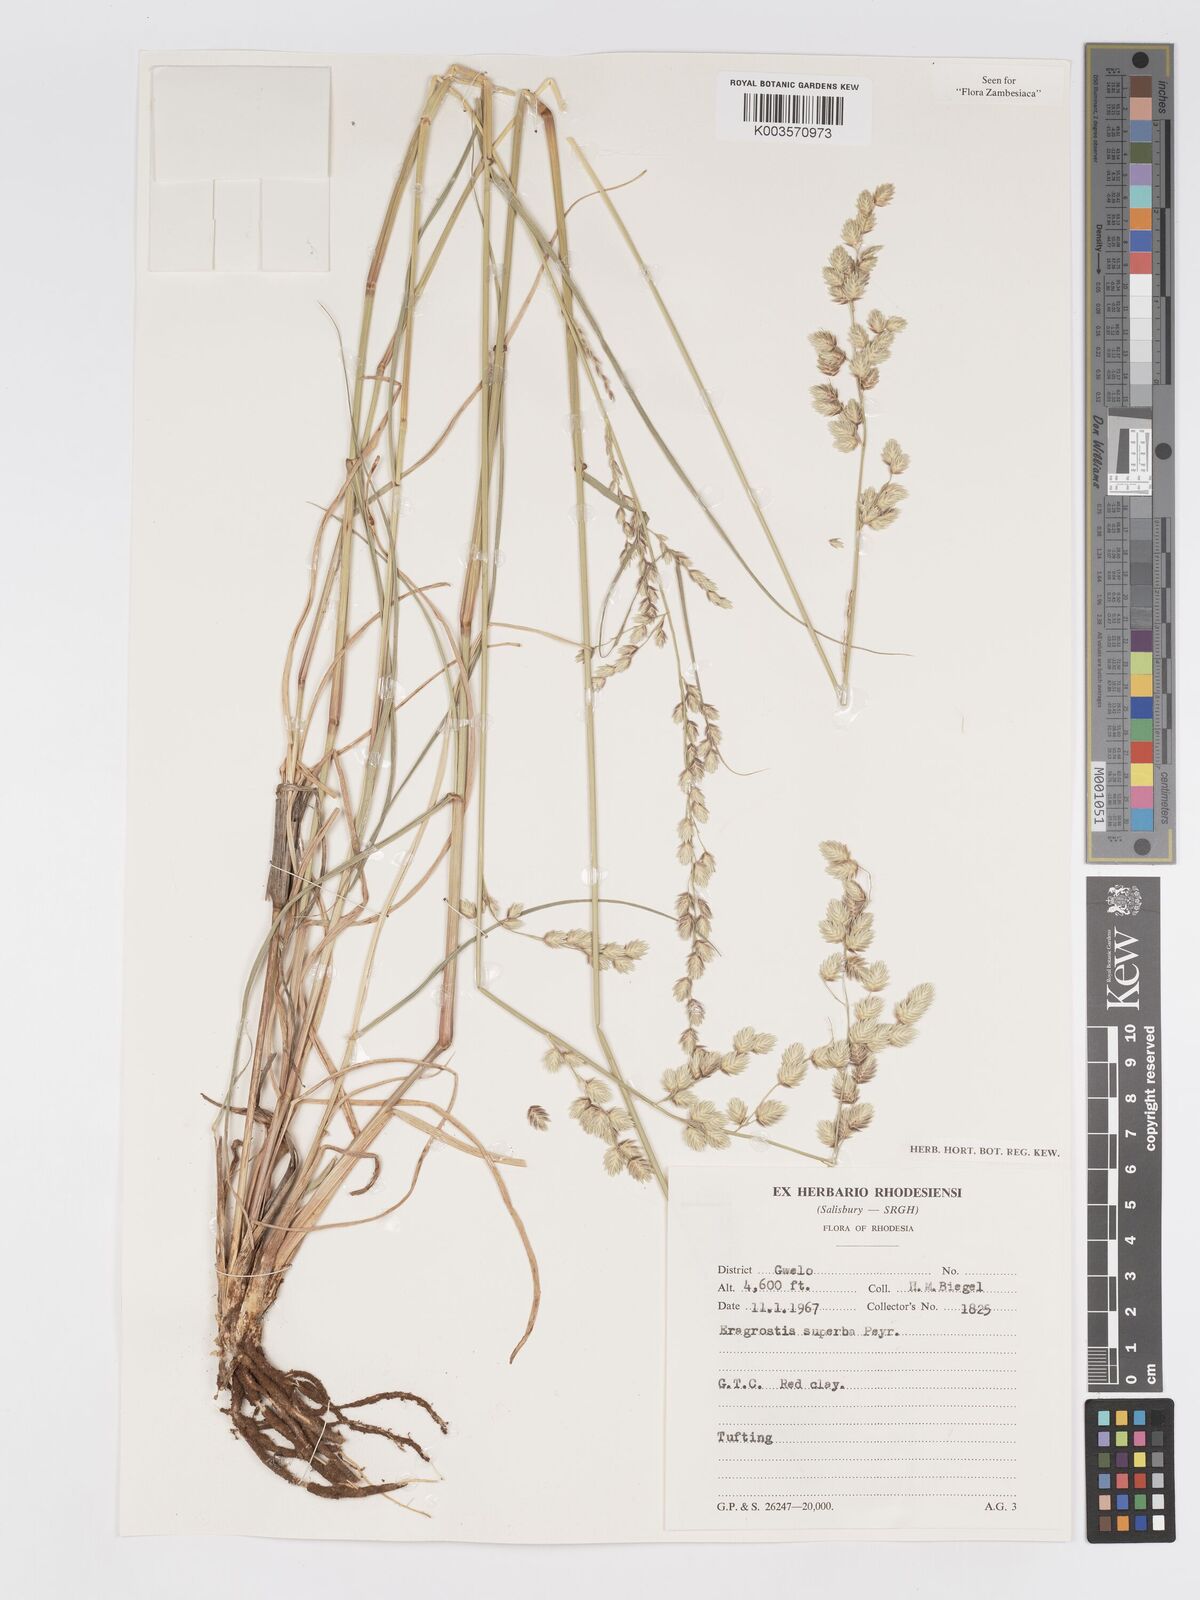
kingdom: Plantae
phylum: Tracheophyta
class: Liliopsida
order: Poales
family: Poaceae
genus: Eragrostis
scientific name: Eragrostis superba
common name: Wilman lovegrass
